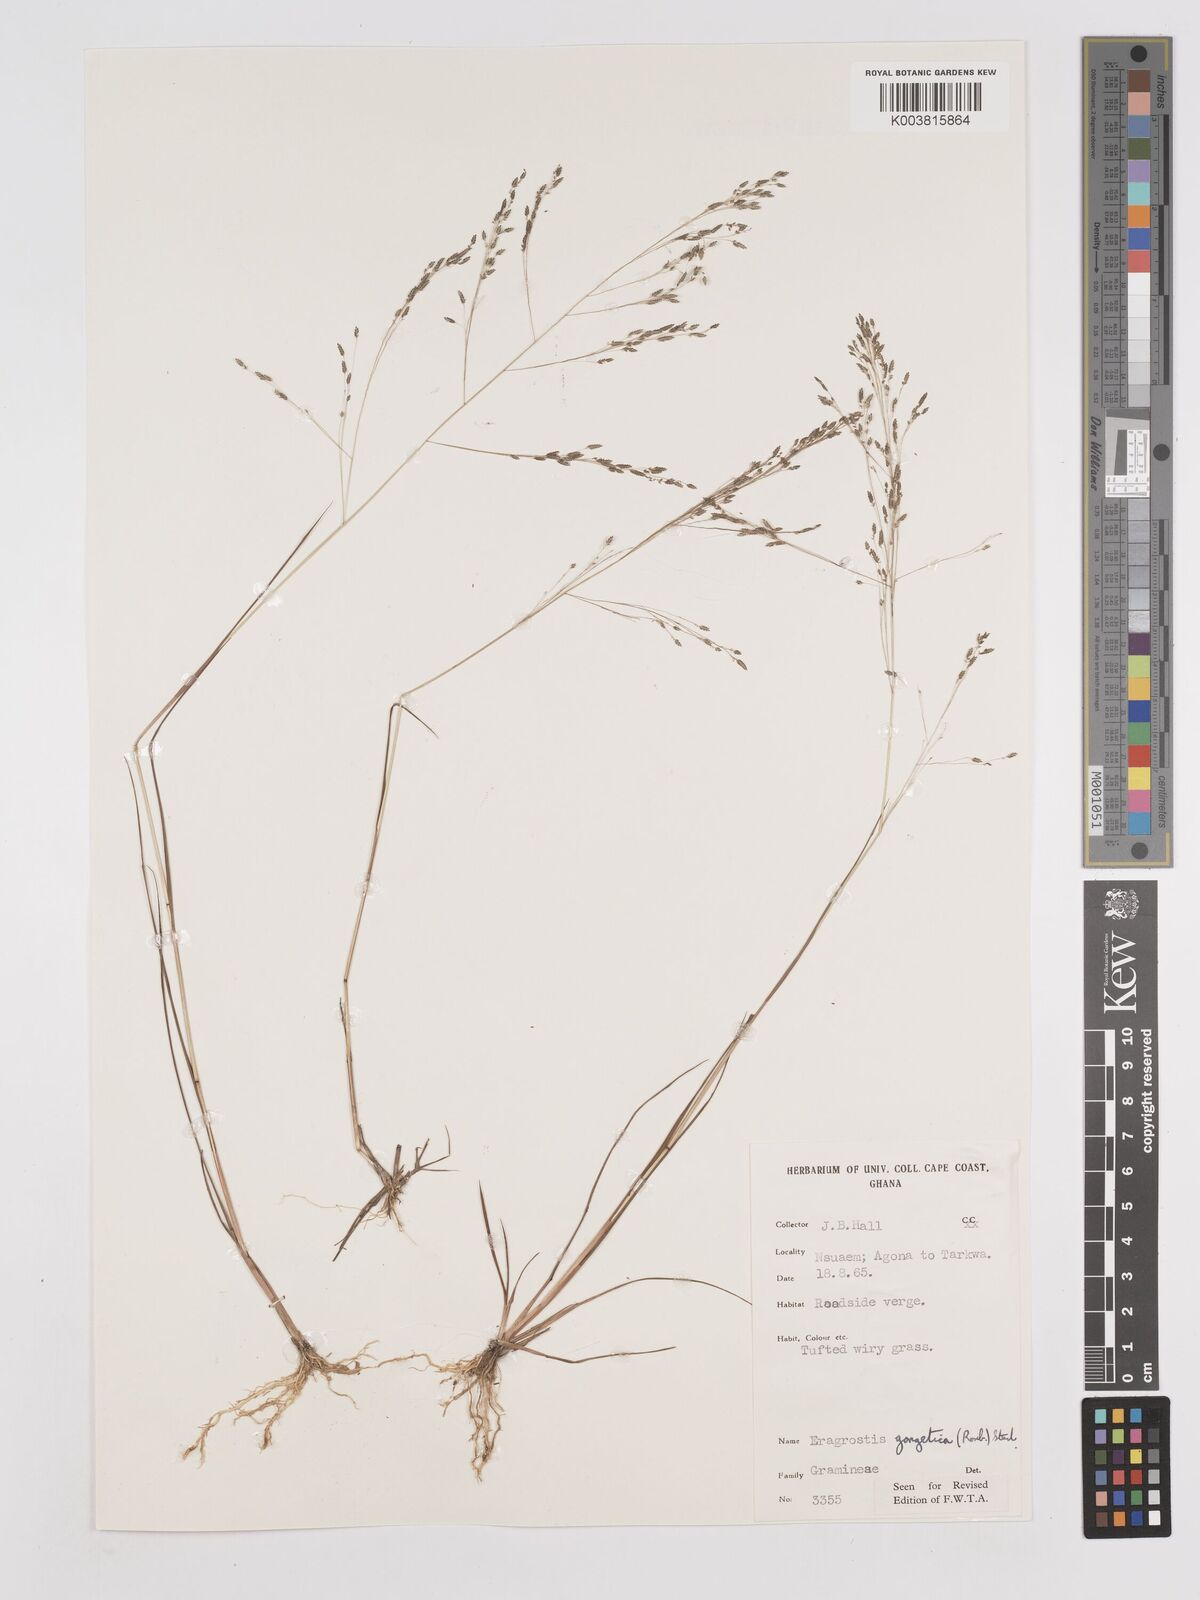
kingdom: Plantae
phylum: Tracheophyta
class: Liliopsida
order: Poales
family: Poaceae
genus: Eragrostis
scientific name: Eragrostis gangetica
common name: Slimflower lovegrass
